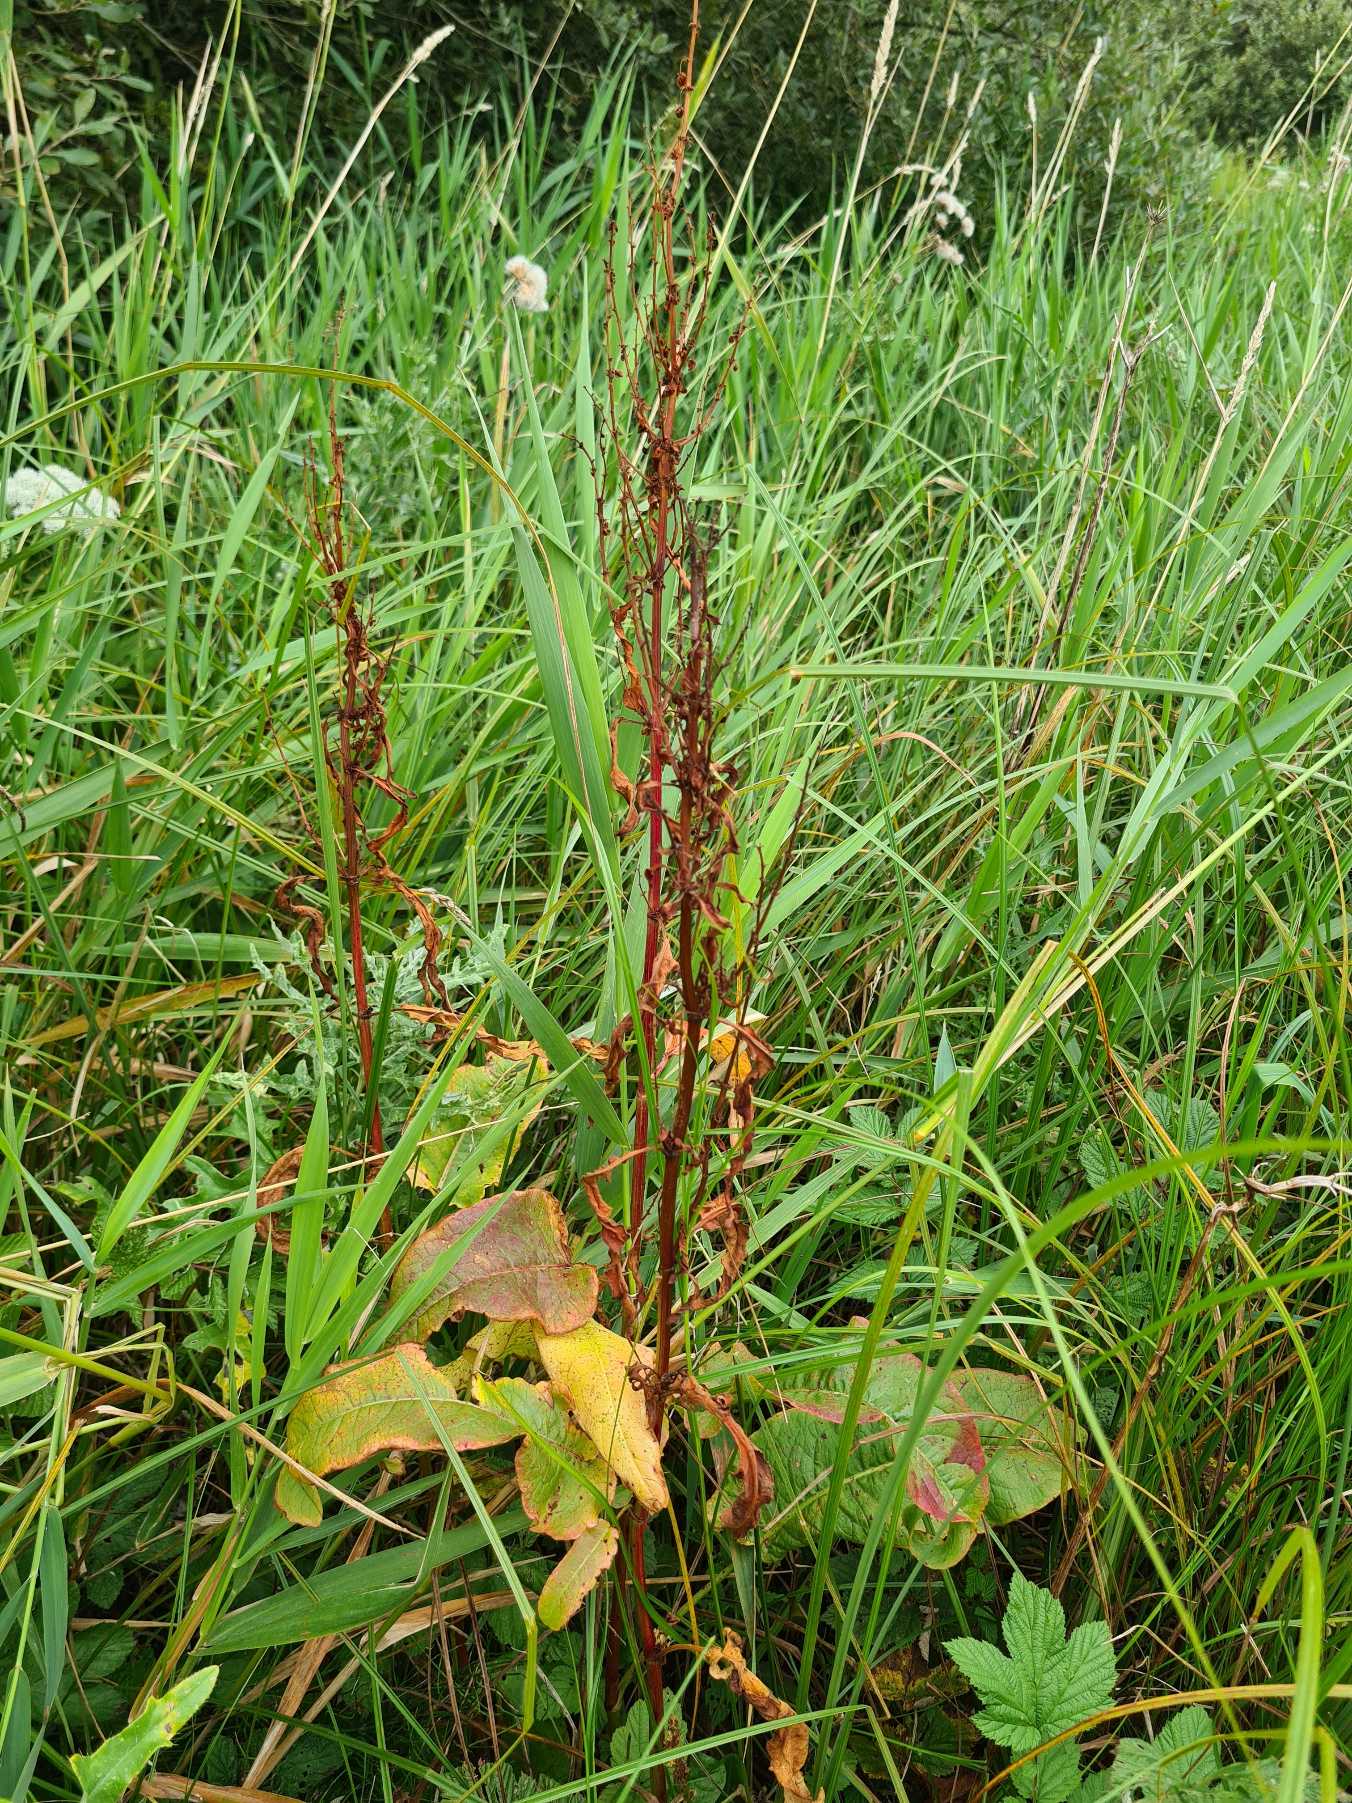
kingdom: Plantae
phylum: Tracheophyta
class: Magnoliopsida
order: Caryophyllales
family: Polygonaceae
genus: Rumex
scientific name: Rumex aquaticus
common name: Dynd-skræppe
